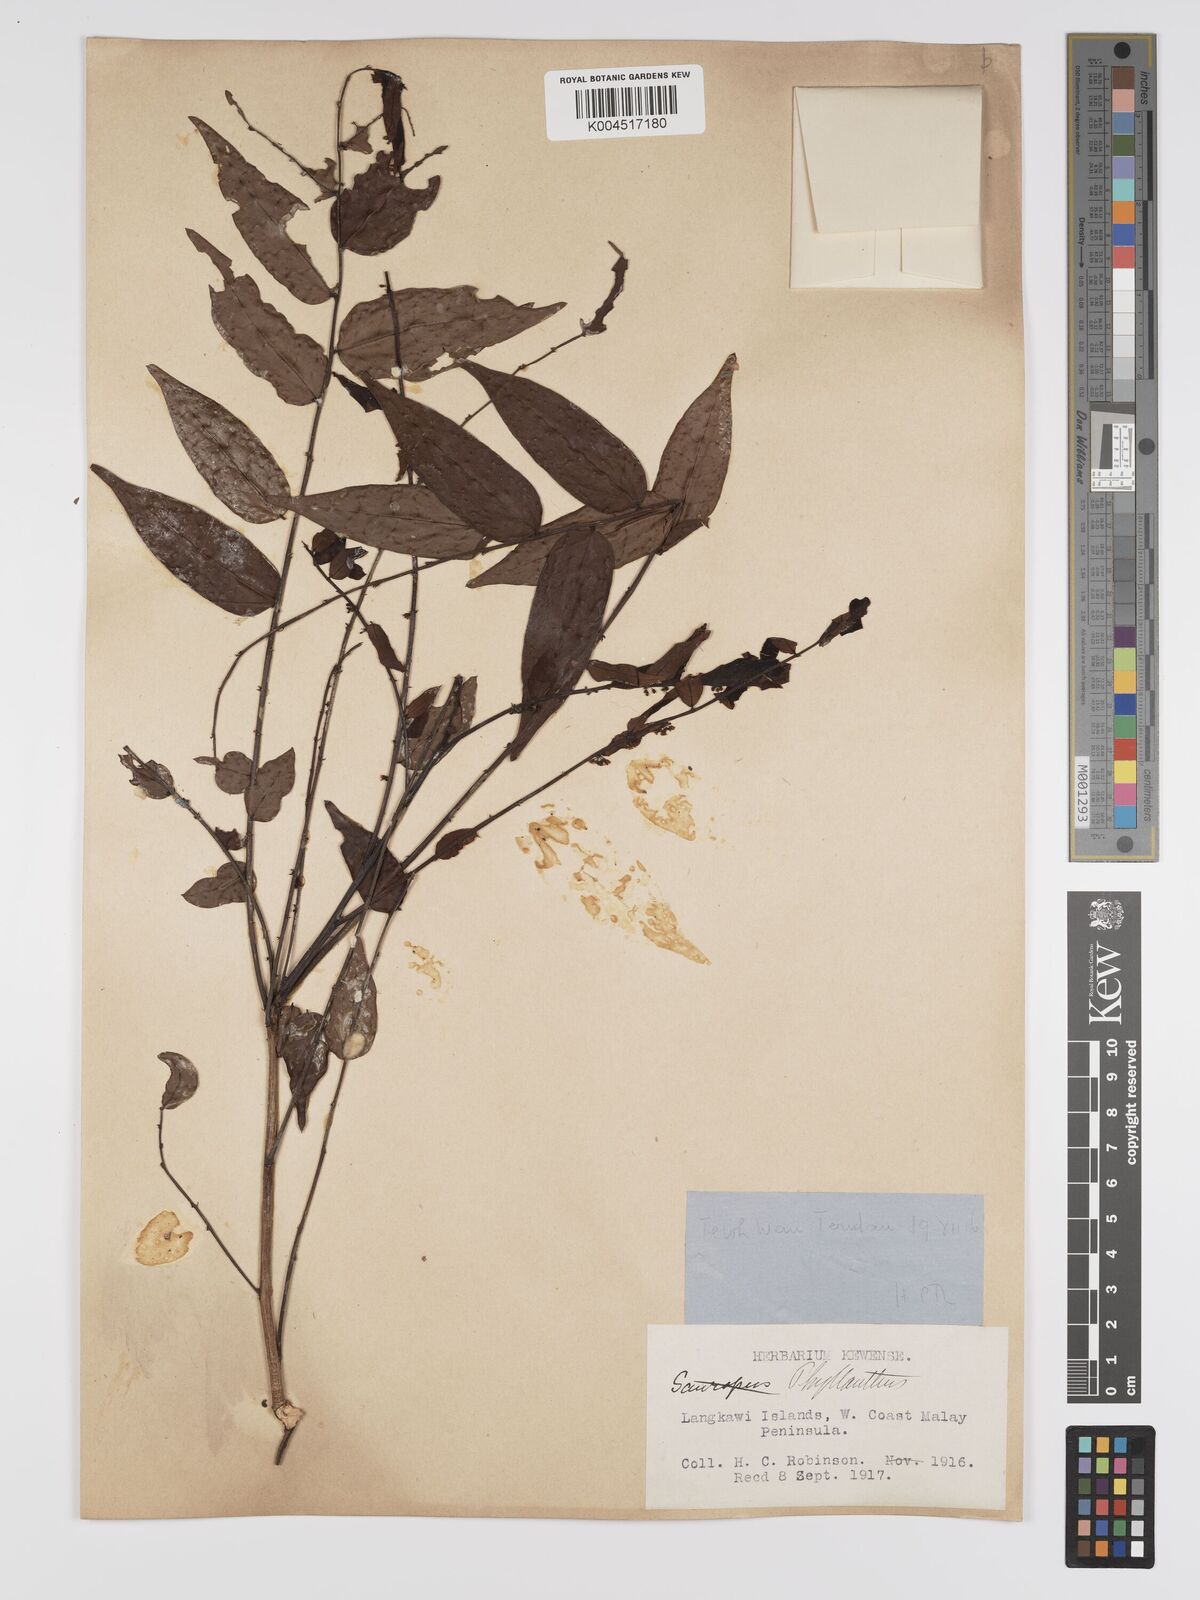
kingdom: Plantae
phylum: Tracheophyta
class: Magnoliopsida
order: Malpighiales
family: Phyllanthaceae
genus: Phyllanthus
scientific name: Phyllanthus
